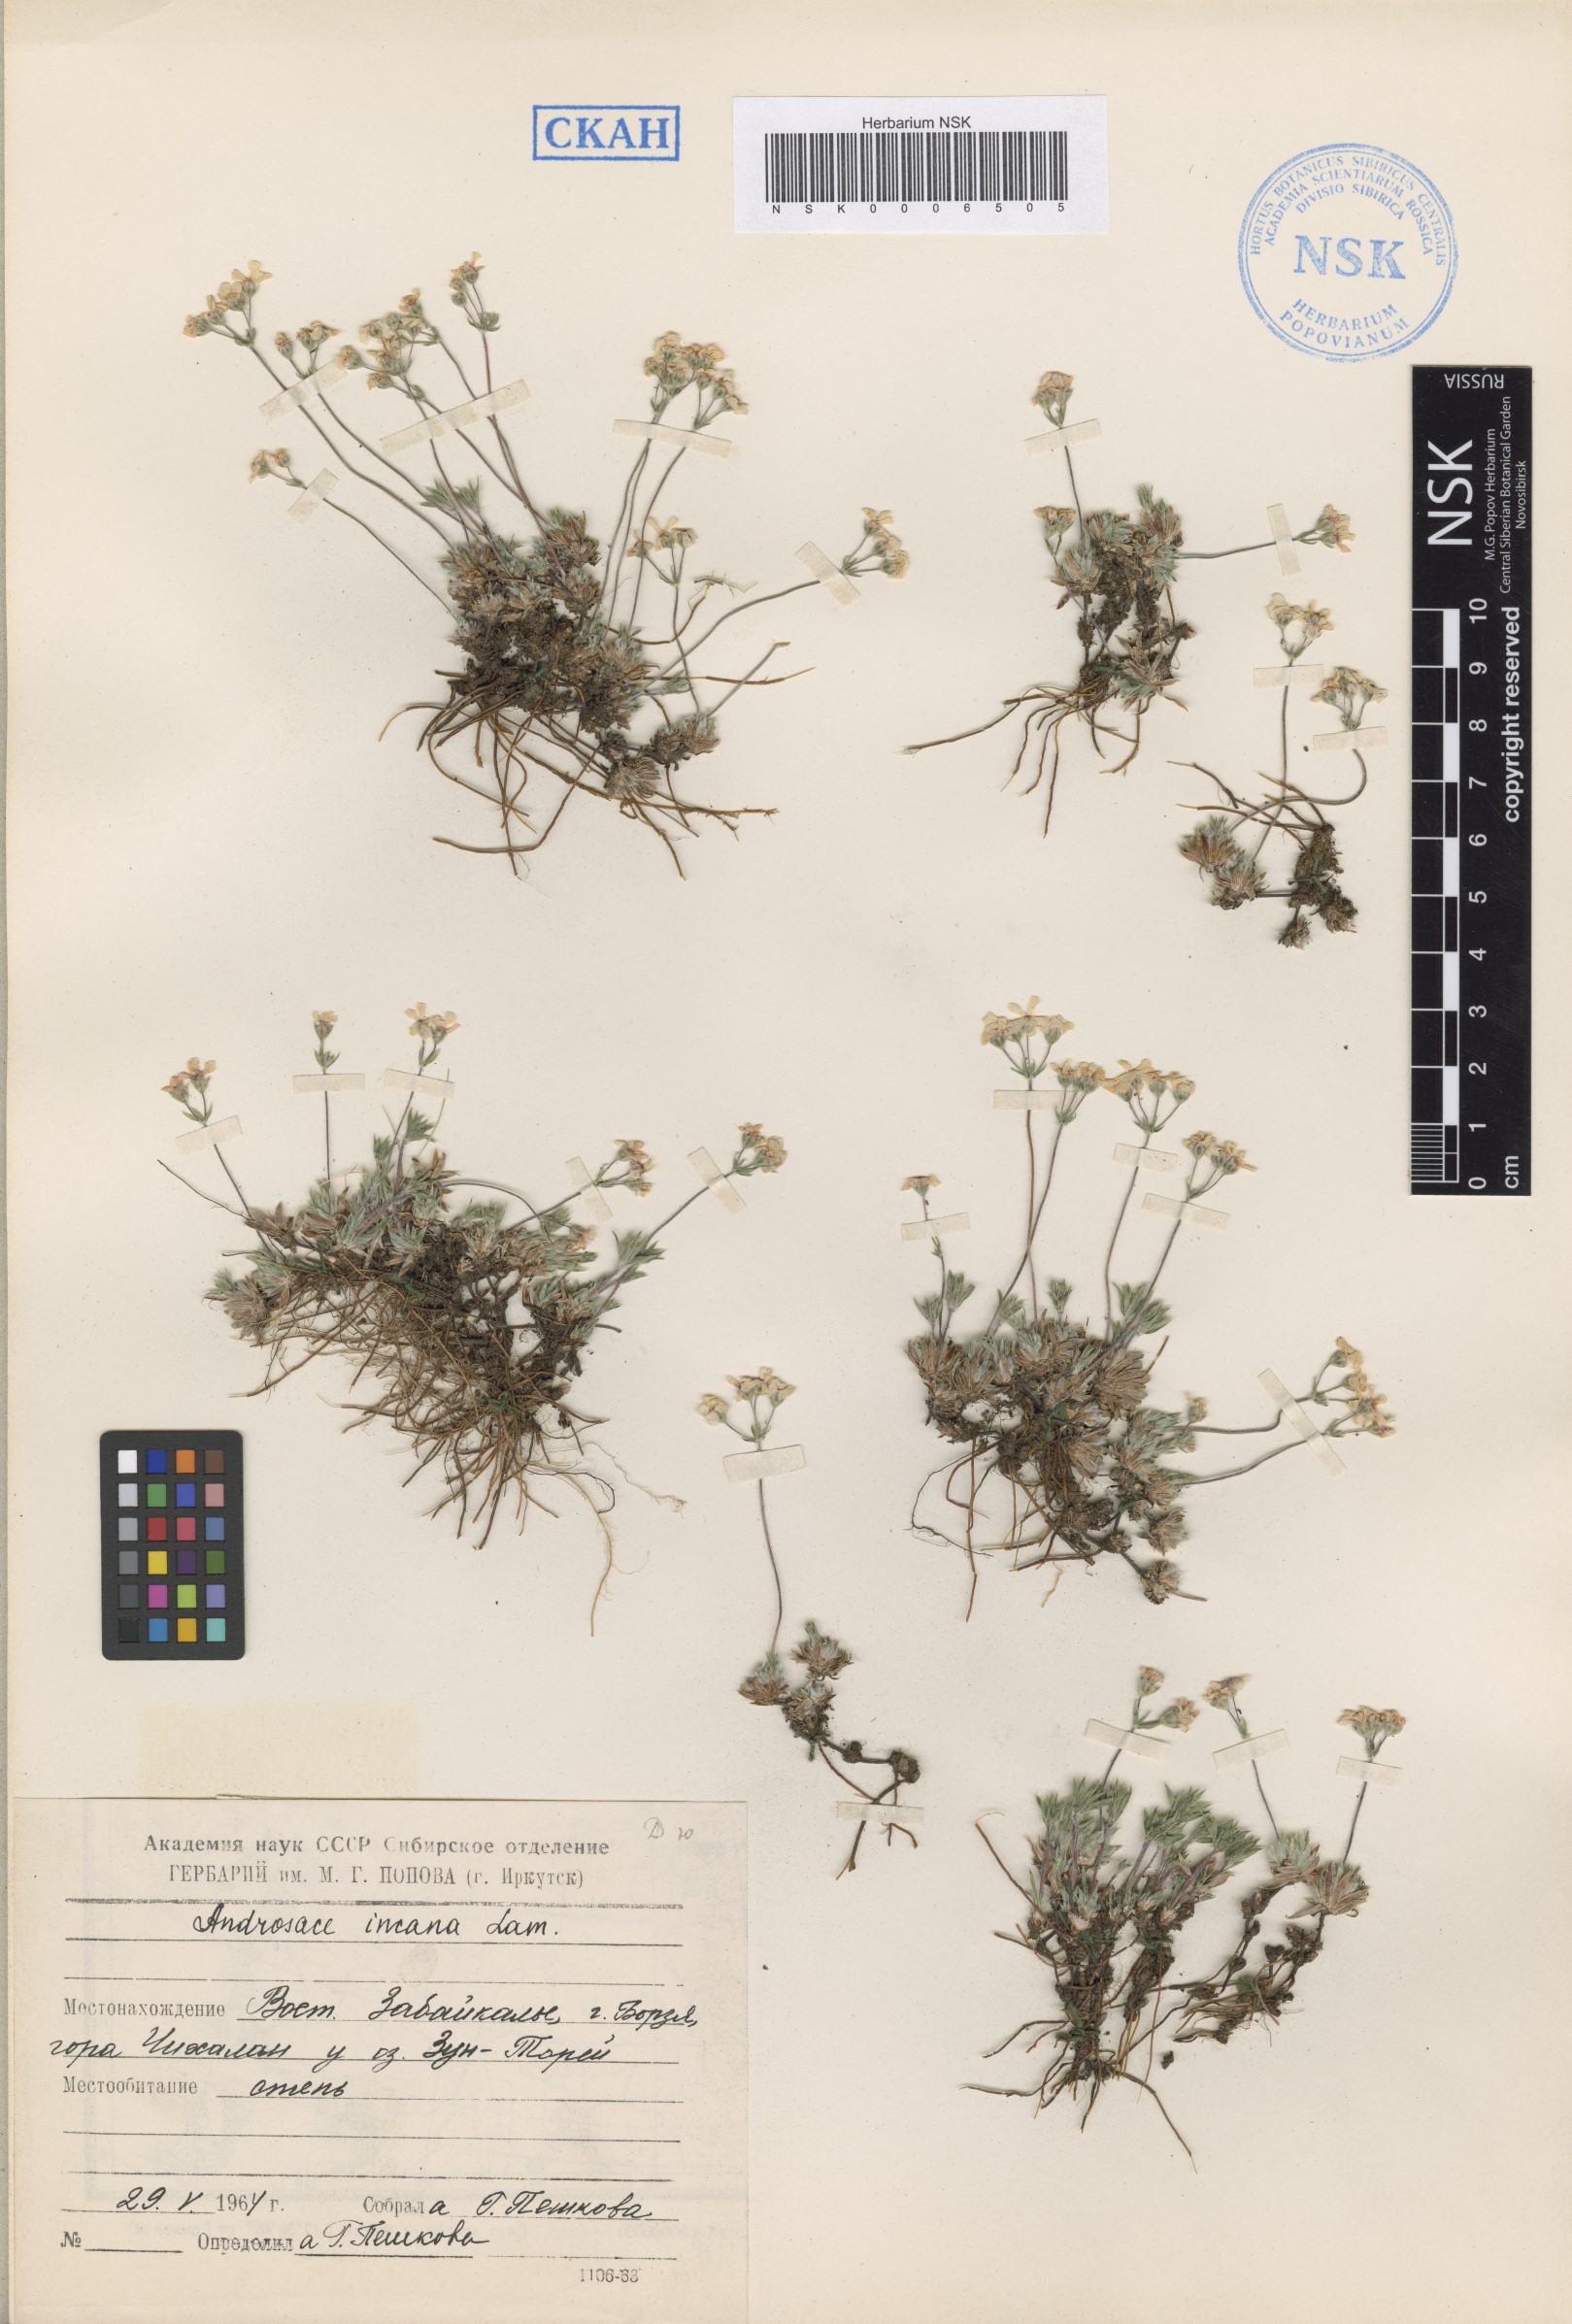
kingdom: Plantae
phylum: Tracheophyta
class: Magnoliopsida
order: Ericales
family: Primulaceae
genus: Androsace
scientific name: Androsace incana
